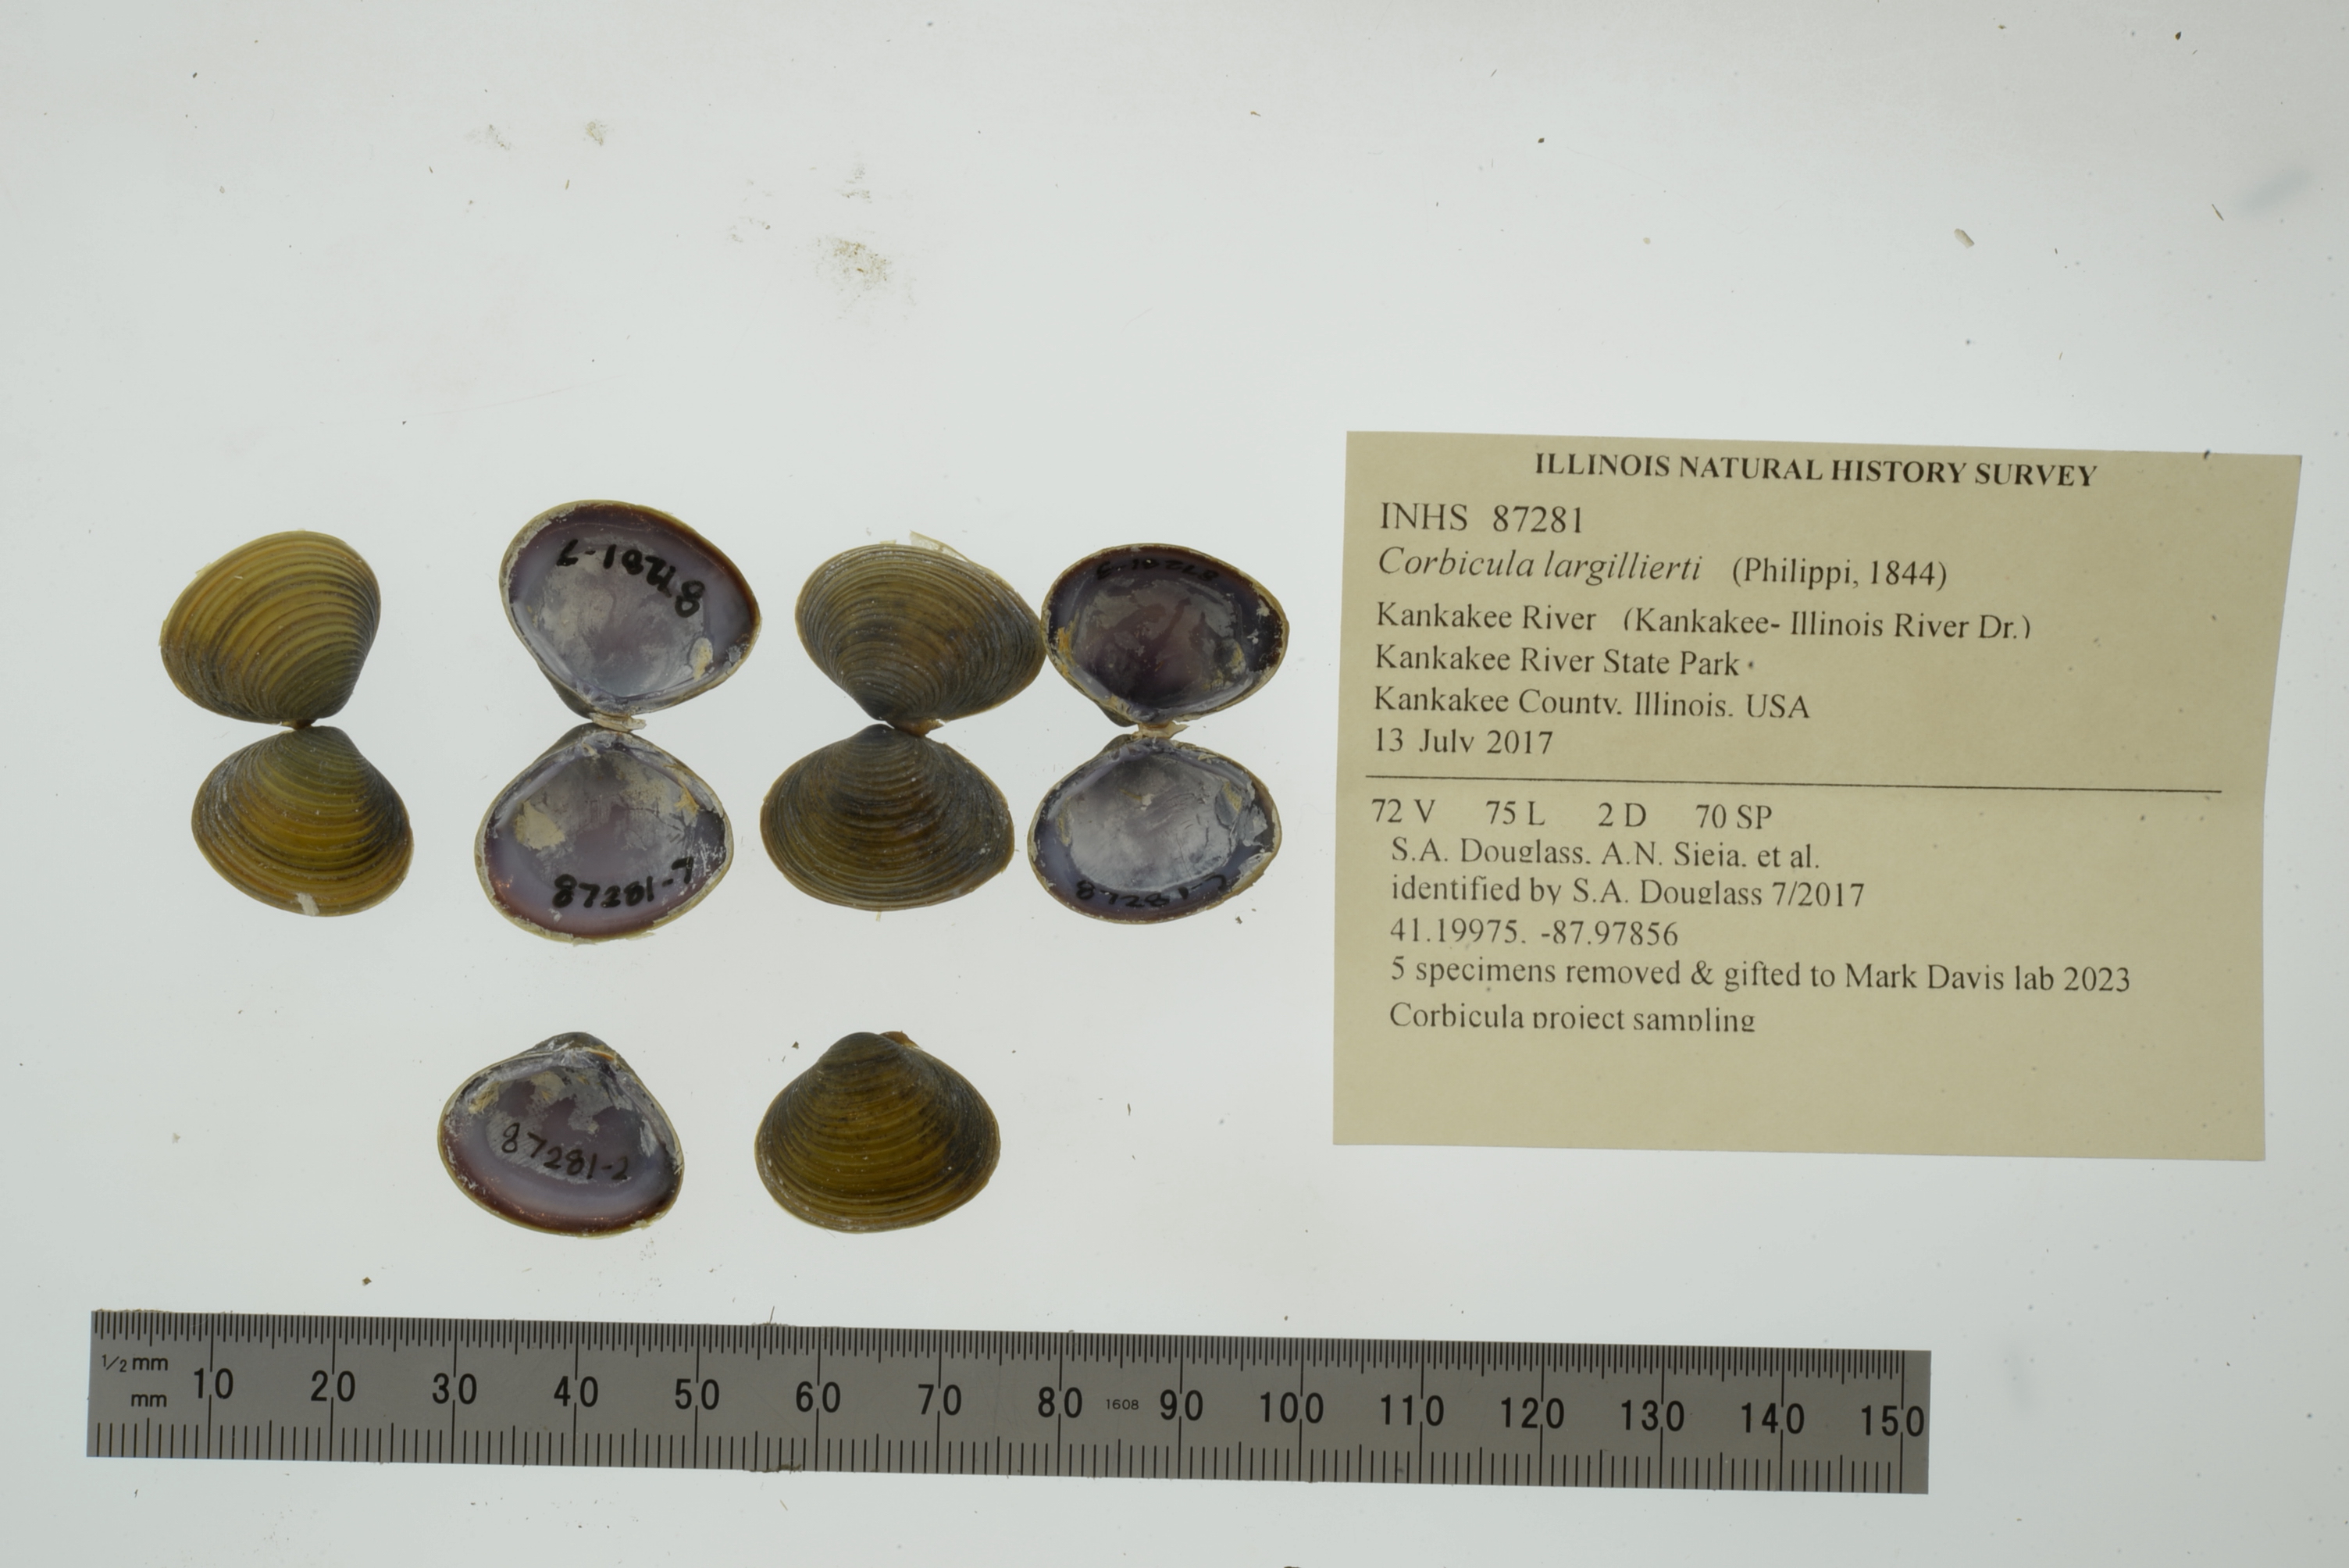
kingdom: Animalia
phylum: Mollusca
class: Bivalvia
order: Venerida
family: Cyrenidae
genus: Corbicula
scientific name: Corbicula largillierti
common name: Purple asian clam
